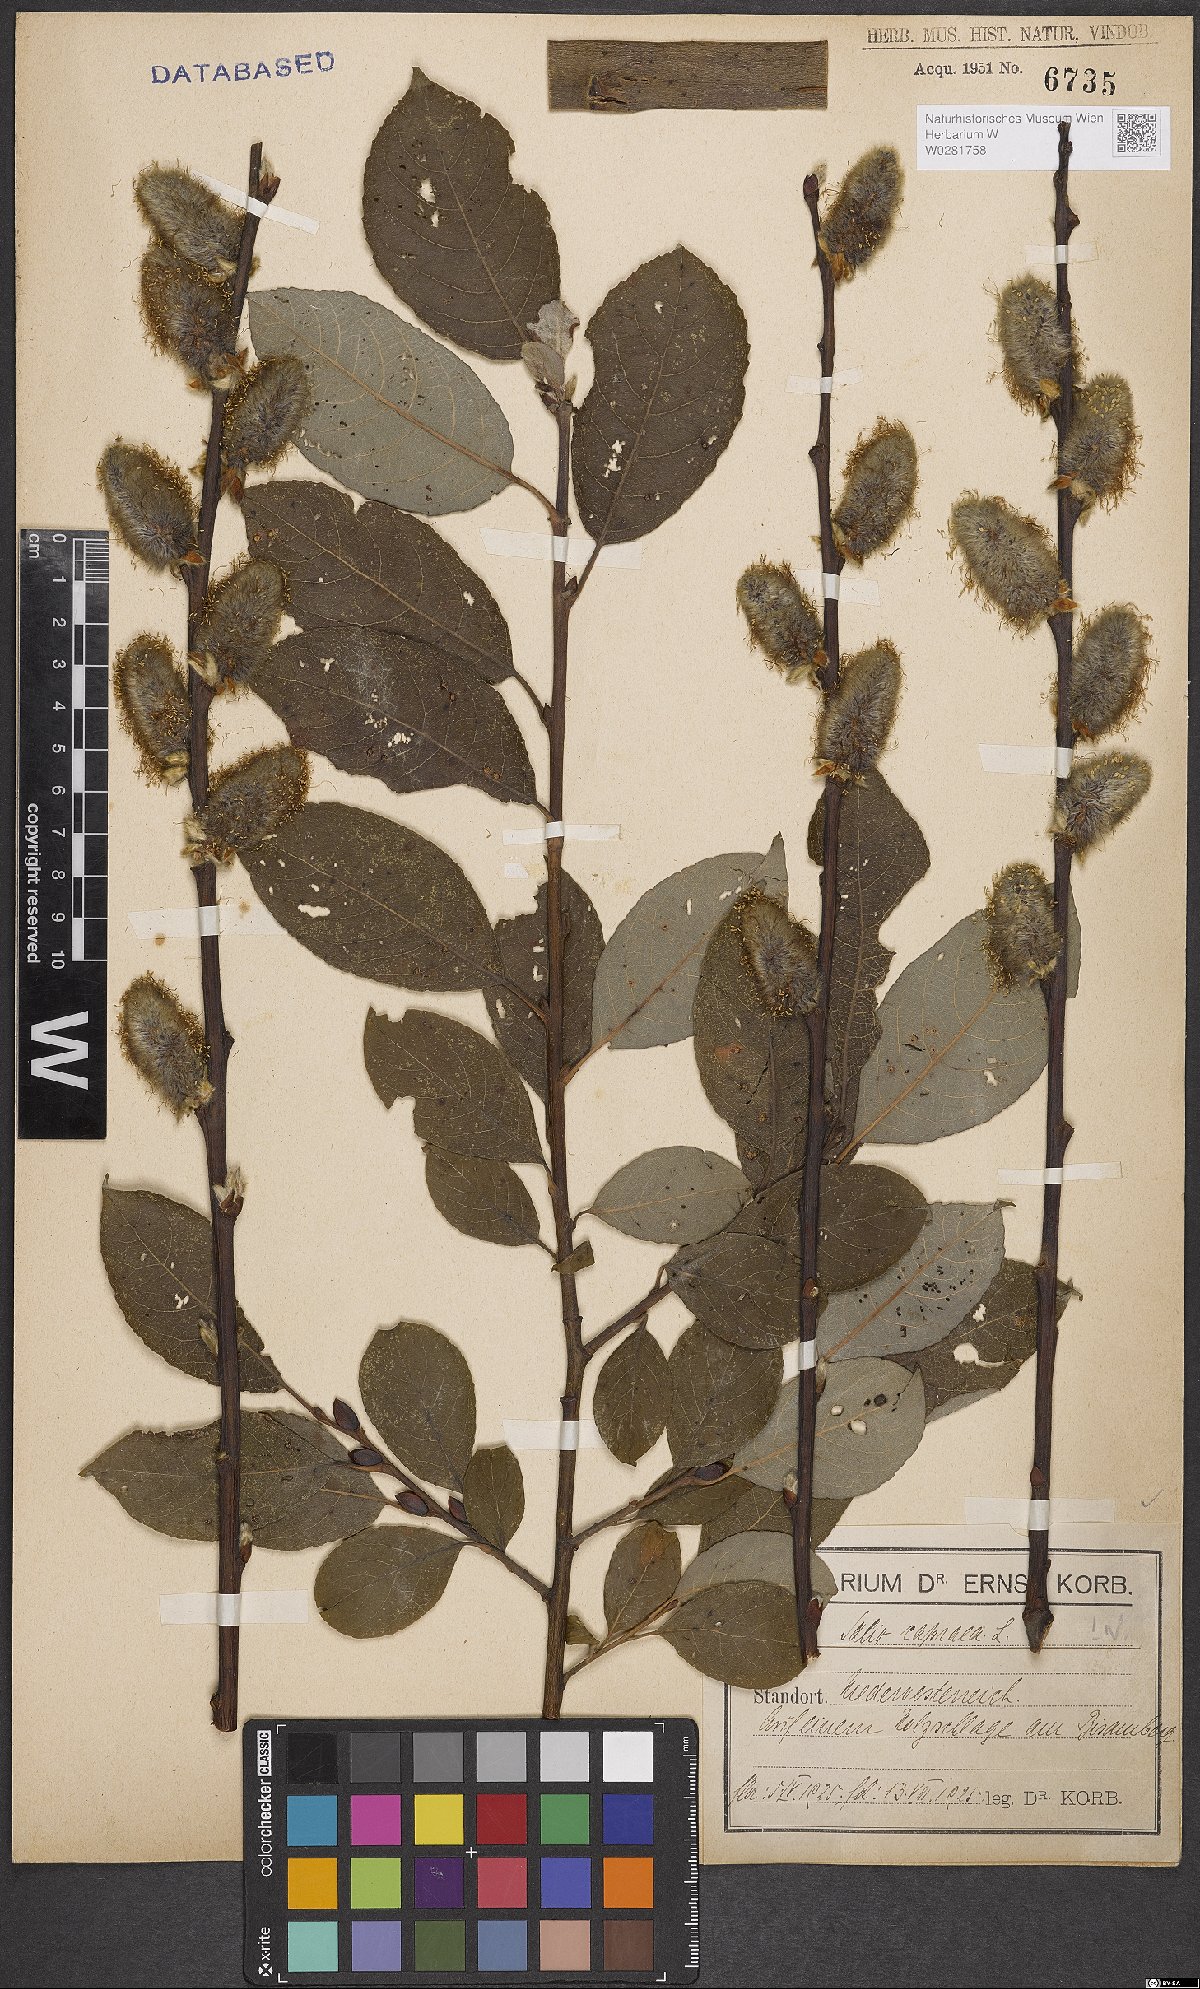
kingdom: Plantae
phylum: Tracheophyta
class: Magnoliopsida
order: Malpighiales
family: Salicaceae
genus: Salix
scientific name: Salix caprea
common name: Goat willow
